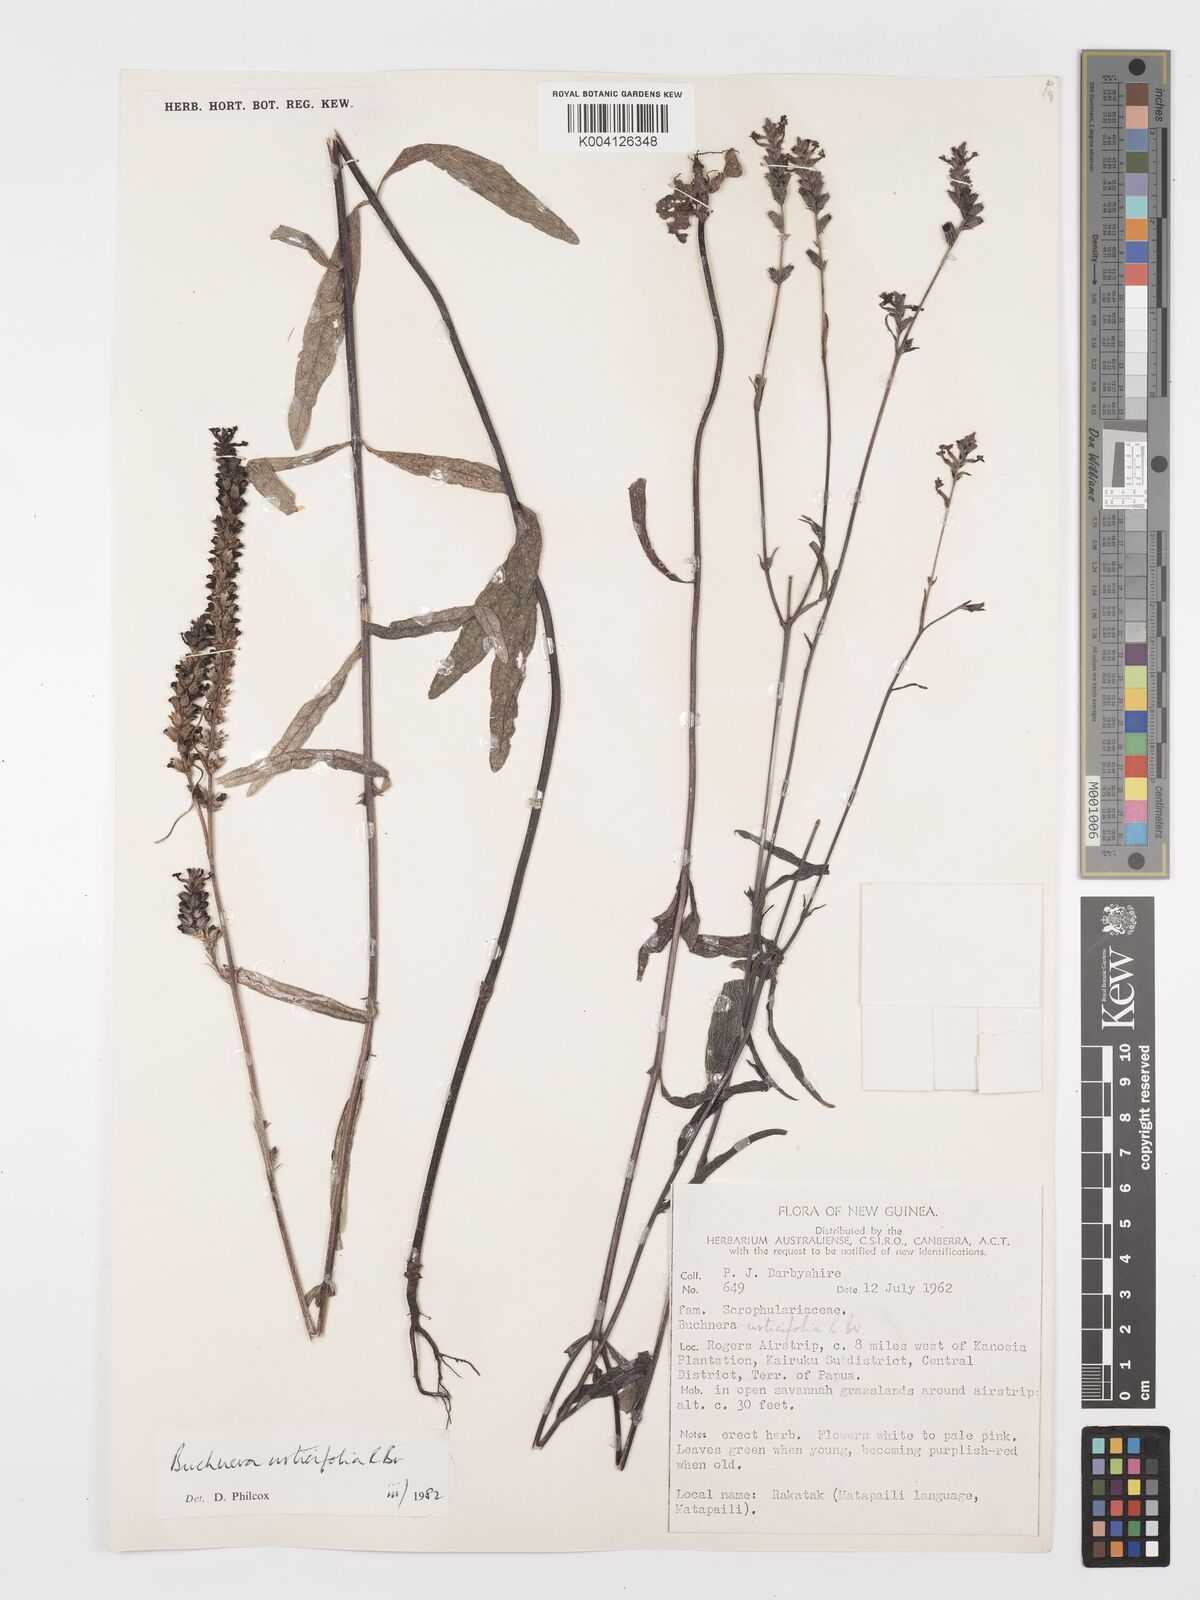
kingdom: Plantae
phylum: Tracheophyta
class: Magnoliopsida
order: Lamiales
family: Orobanchaceae
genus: Buchnera
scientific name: Buchnera urticifolia
